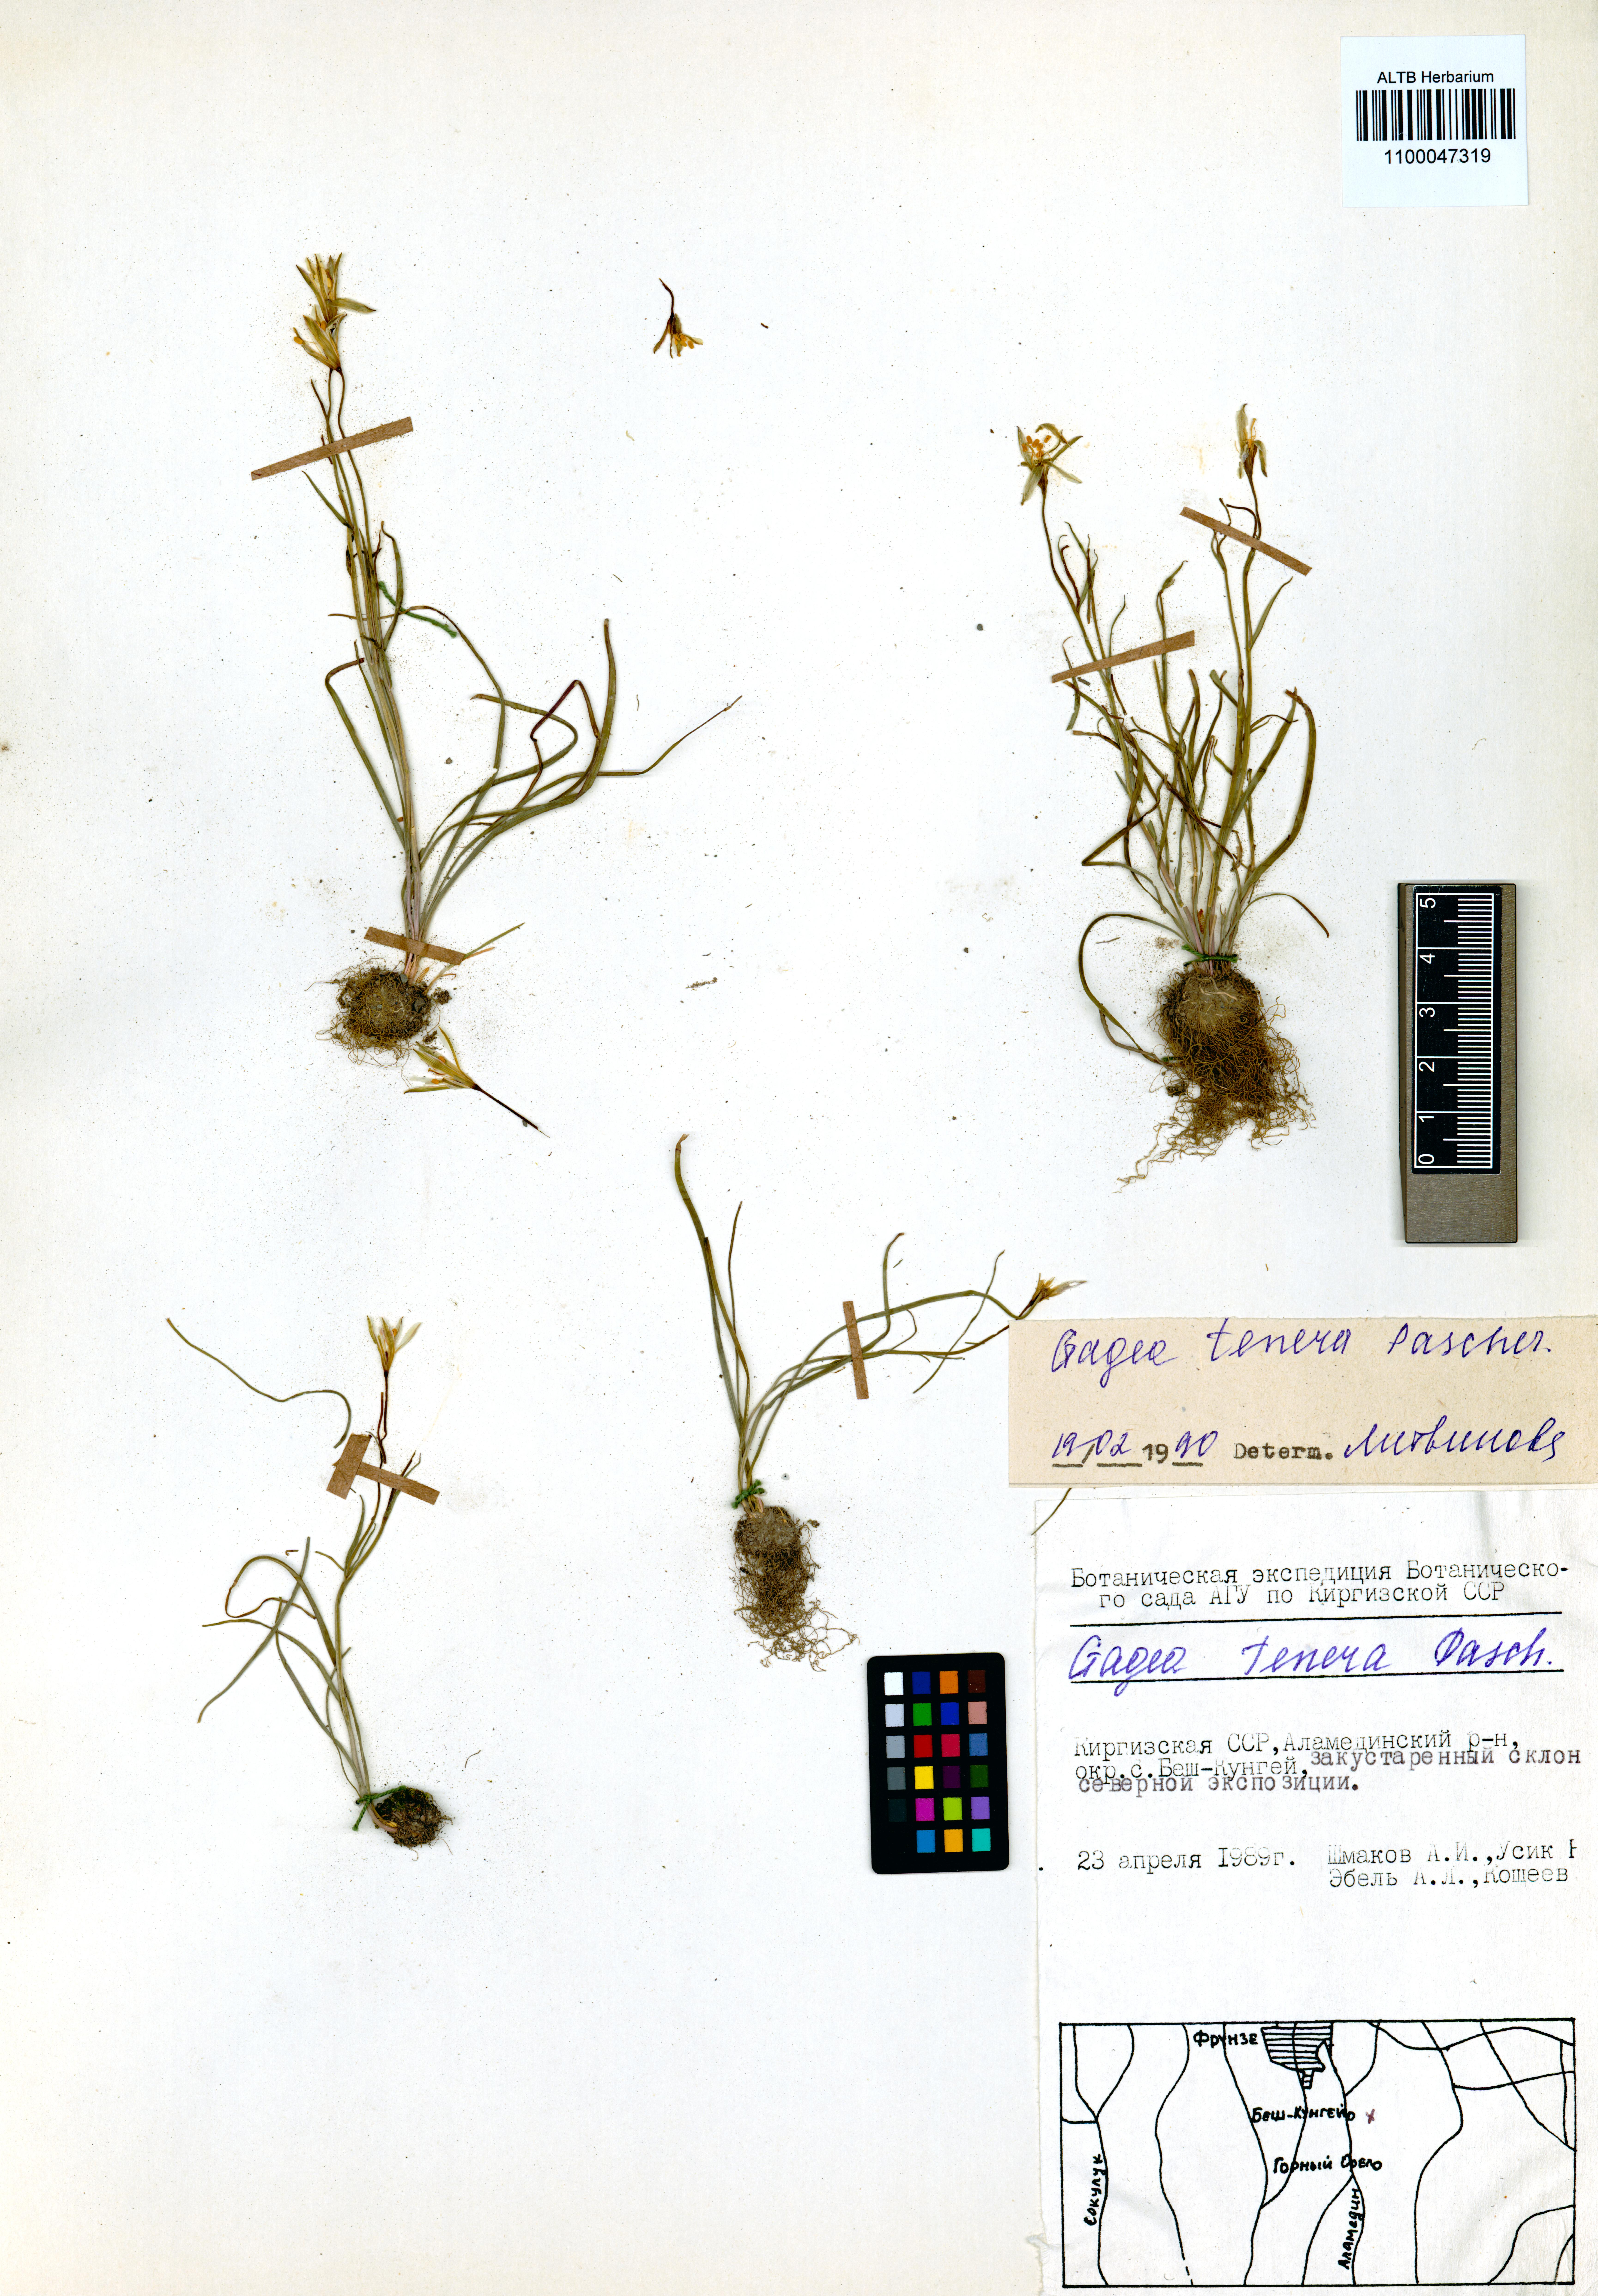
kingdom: Plantae
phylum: Tracheophyta
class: Liliopsida
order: Liliales
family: Liliaceae
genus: Gagea
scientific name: Gagea tenera
